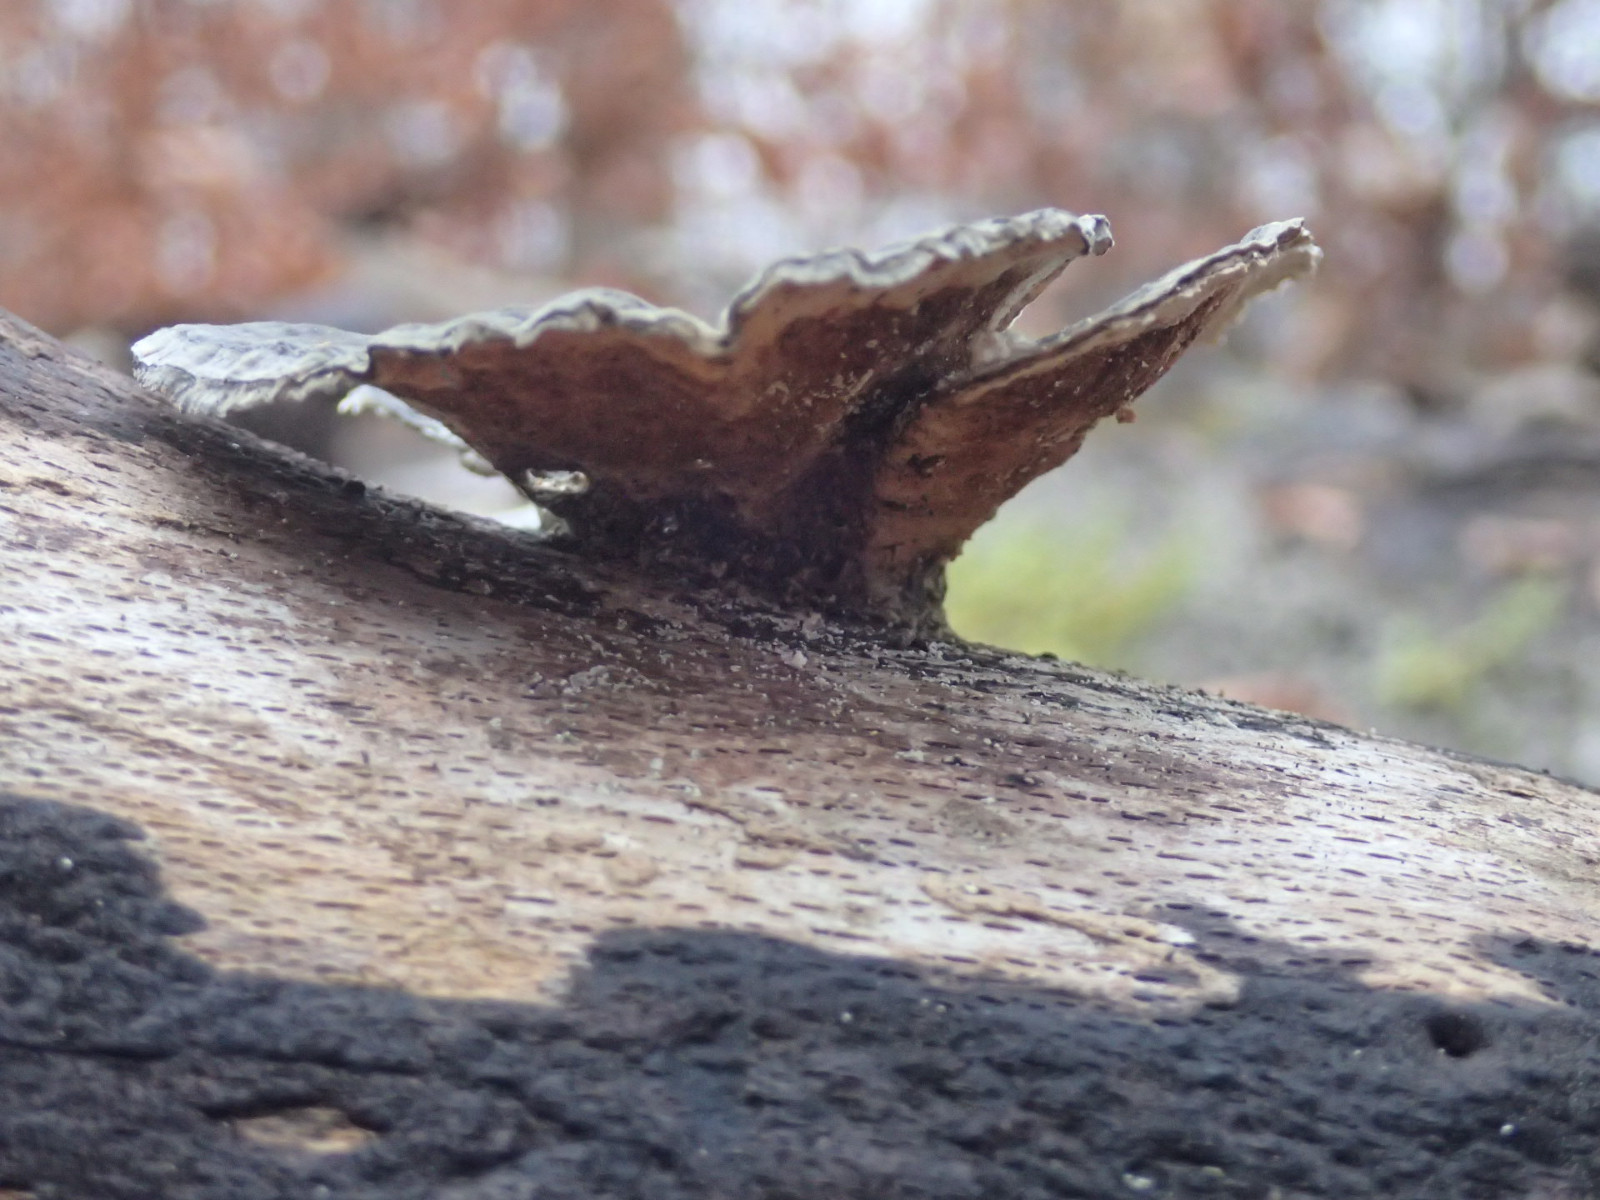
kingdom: Fungi
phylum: Basidiomycota
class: Agaricomycetes
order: Polyporales
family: Polyporaceae
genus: Trametes
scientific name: Trametes versicolor
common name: broget læderporesvamp
